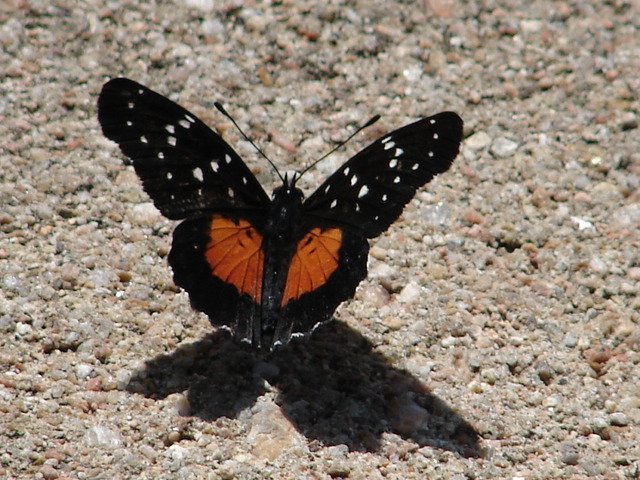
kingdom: Animalia
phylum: Arthropoda
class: Insecta
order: Lepidoptera
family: Nymphalidae
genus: Chlosyne
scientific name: Chlosyne janais
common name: Crimson Patch
